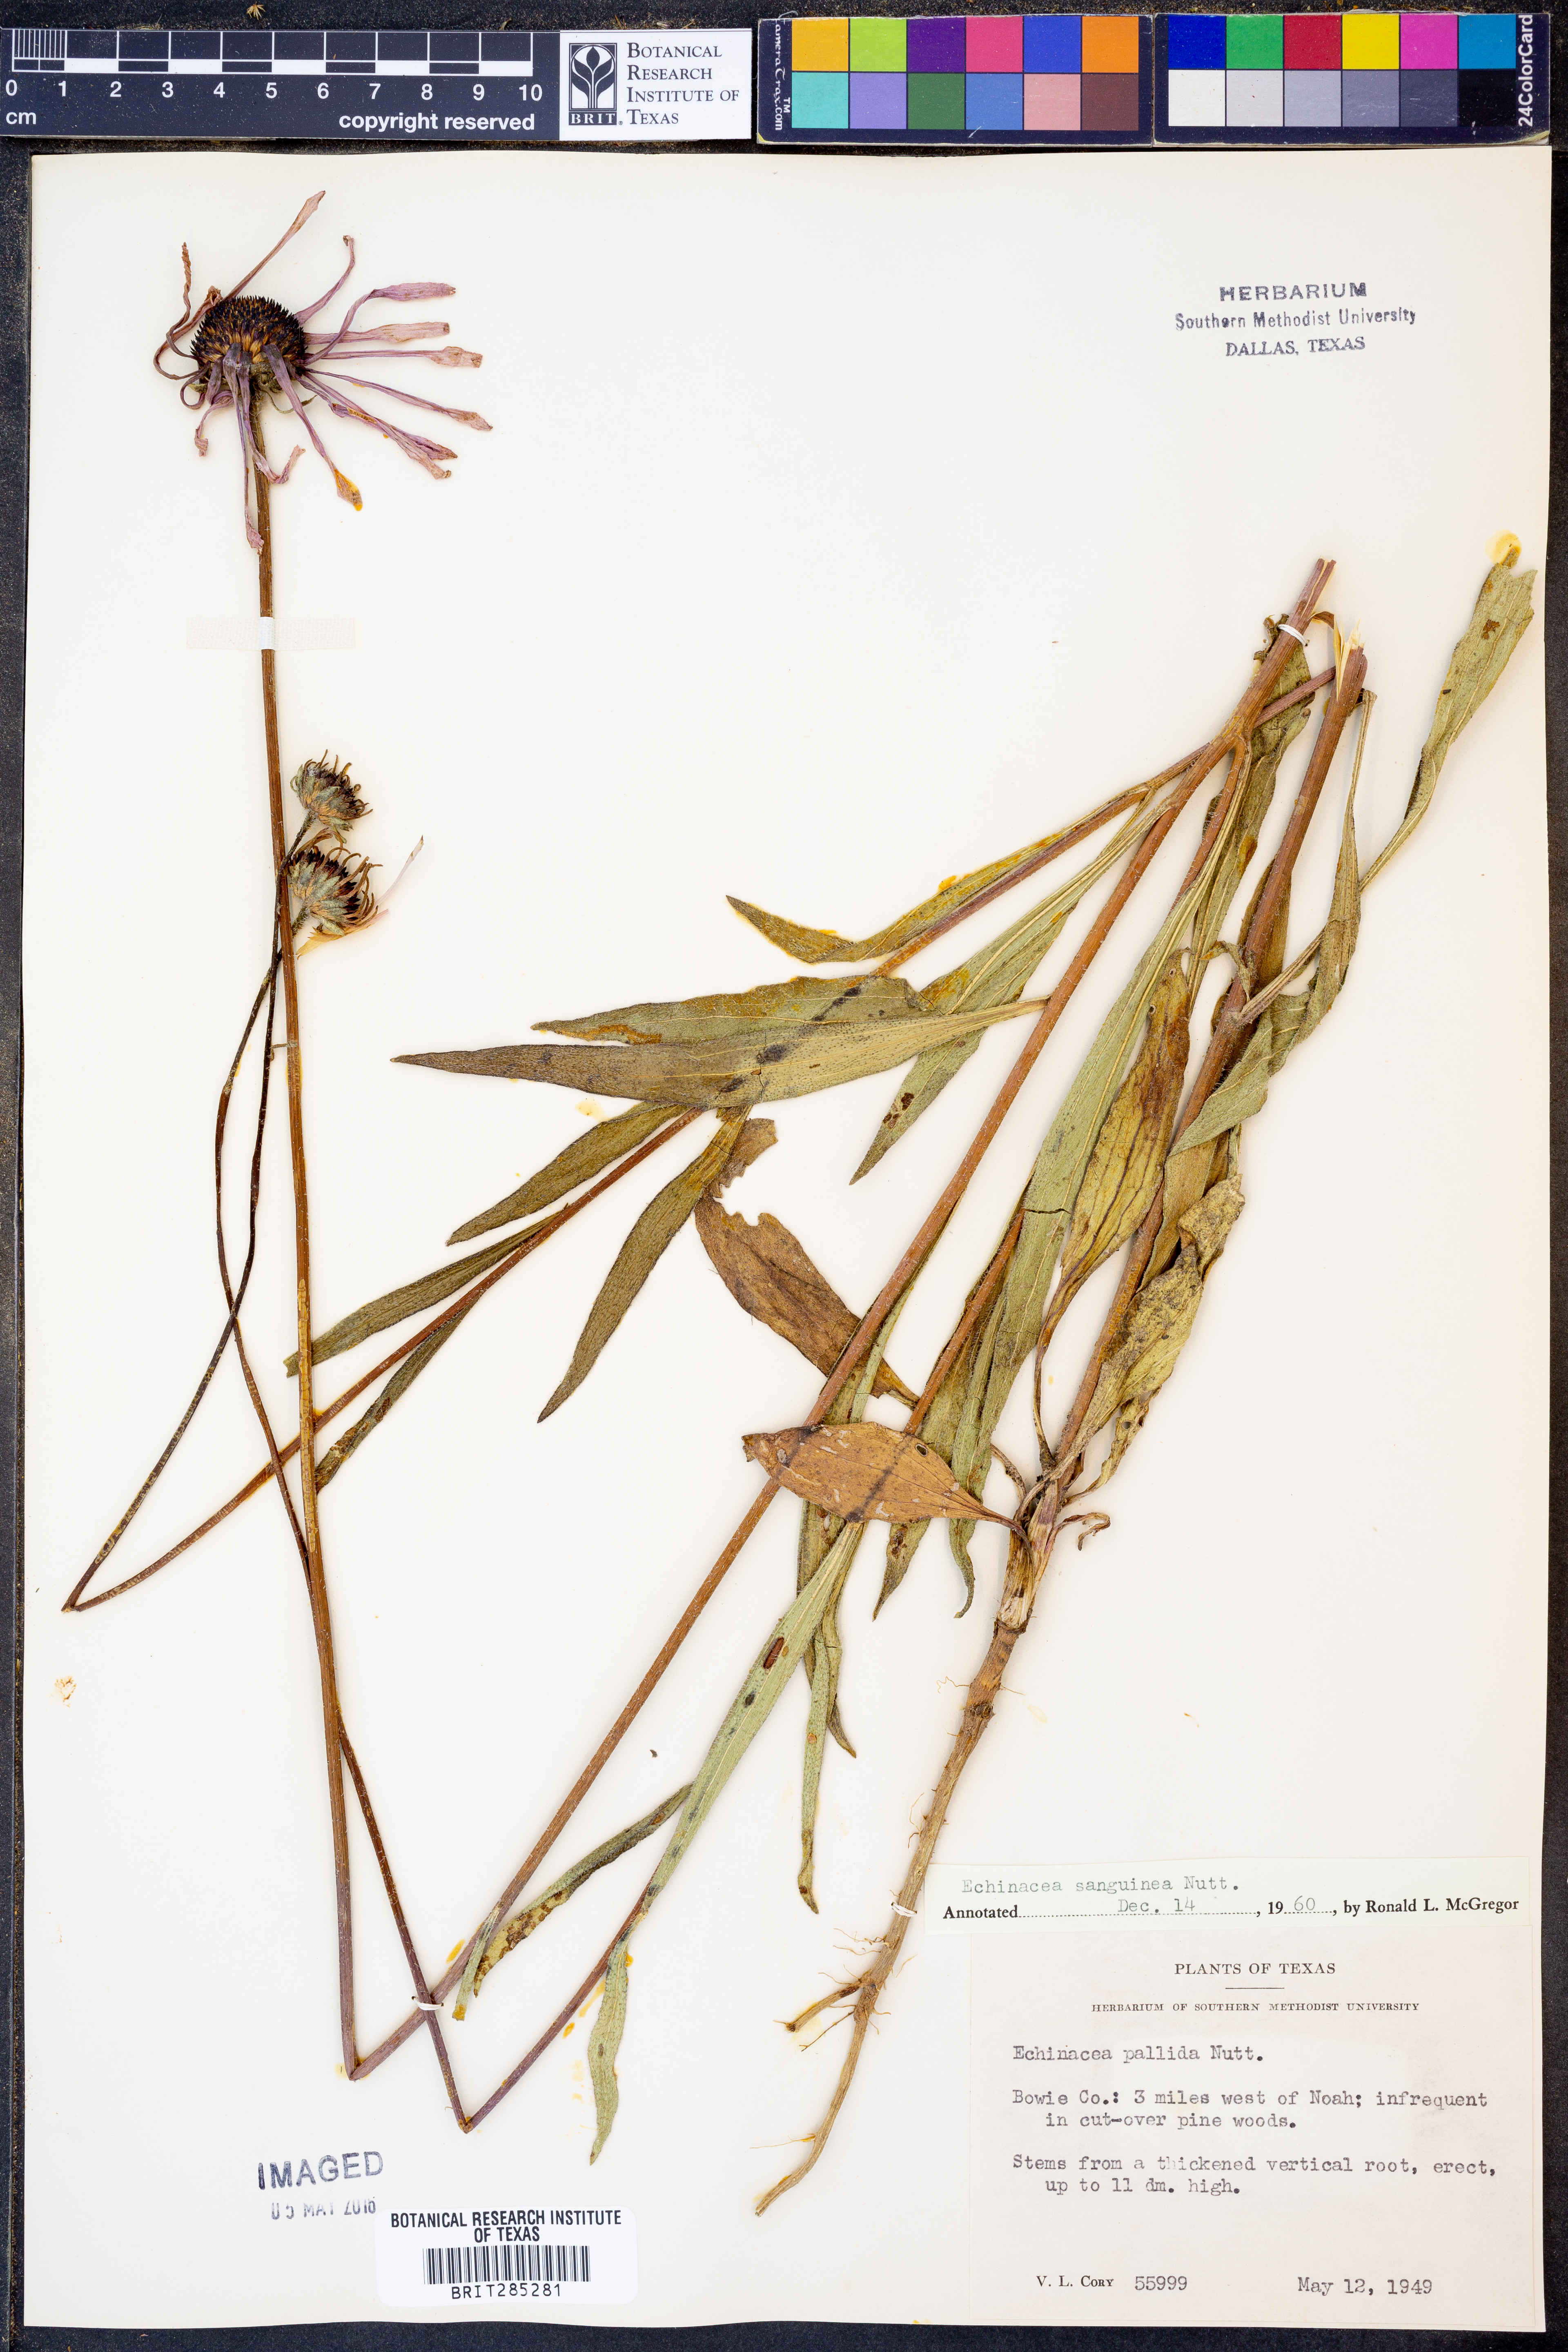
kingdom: Plantae
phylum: Tracheophyta
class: Magnoliopsida
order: Asterales
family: Asteraceae
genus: Echinacea
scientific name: Echinacea sanguinea
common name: Sanguine purple-coneflower
